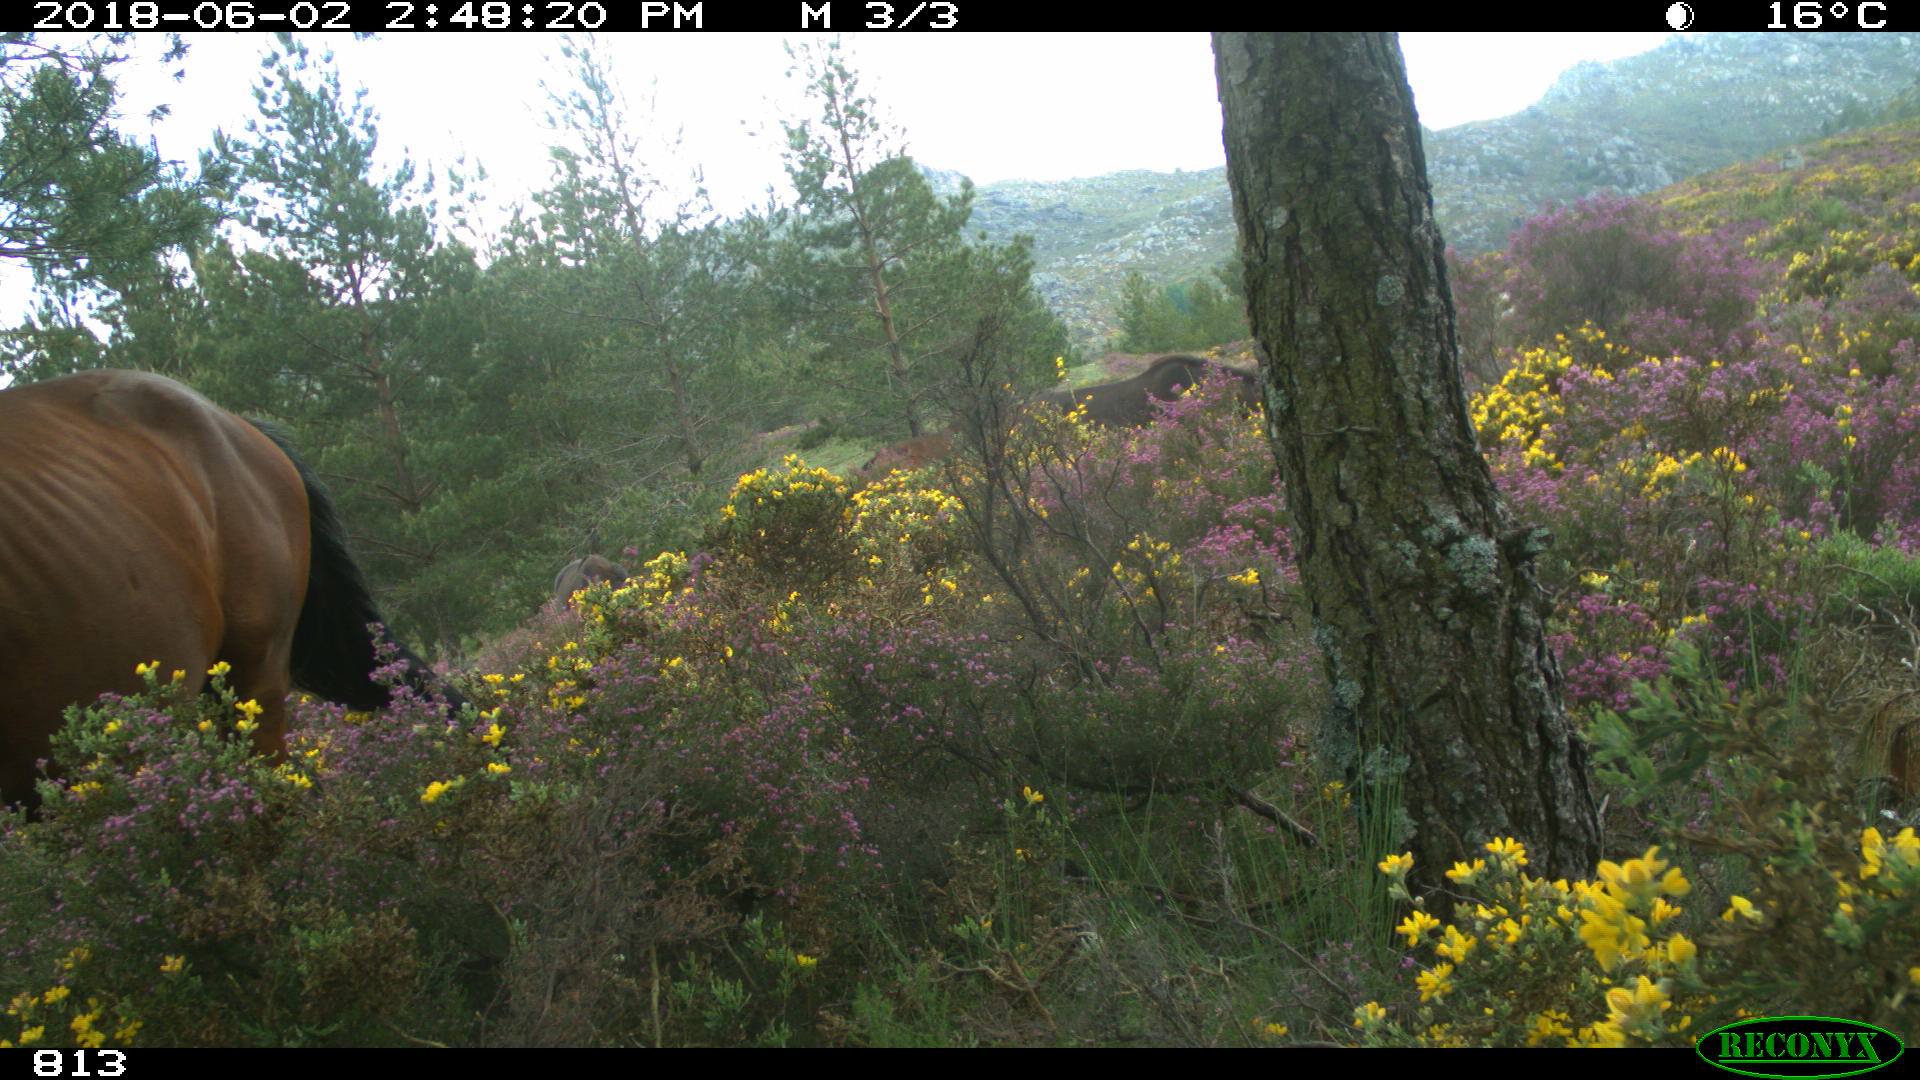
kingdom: Animalia
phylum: Chordata
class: Mammalia
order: Perissodactyla
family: Equidae
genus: Equus
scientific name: Equus caballus
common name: Horse
